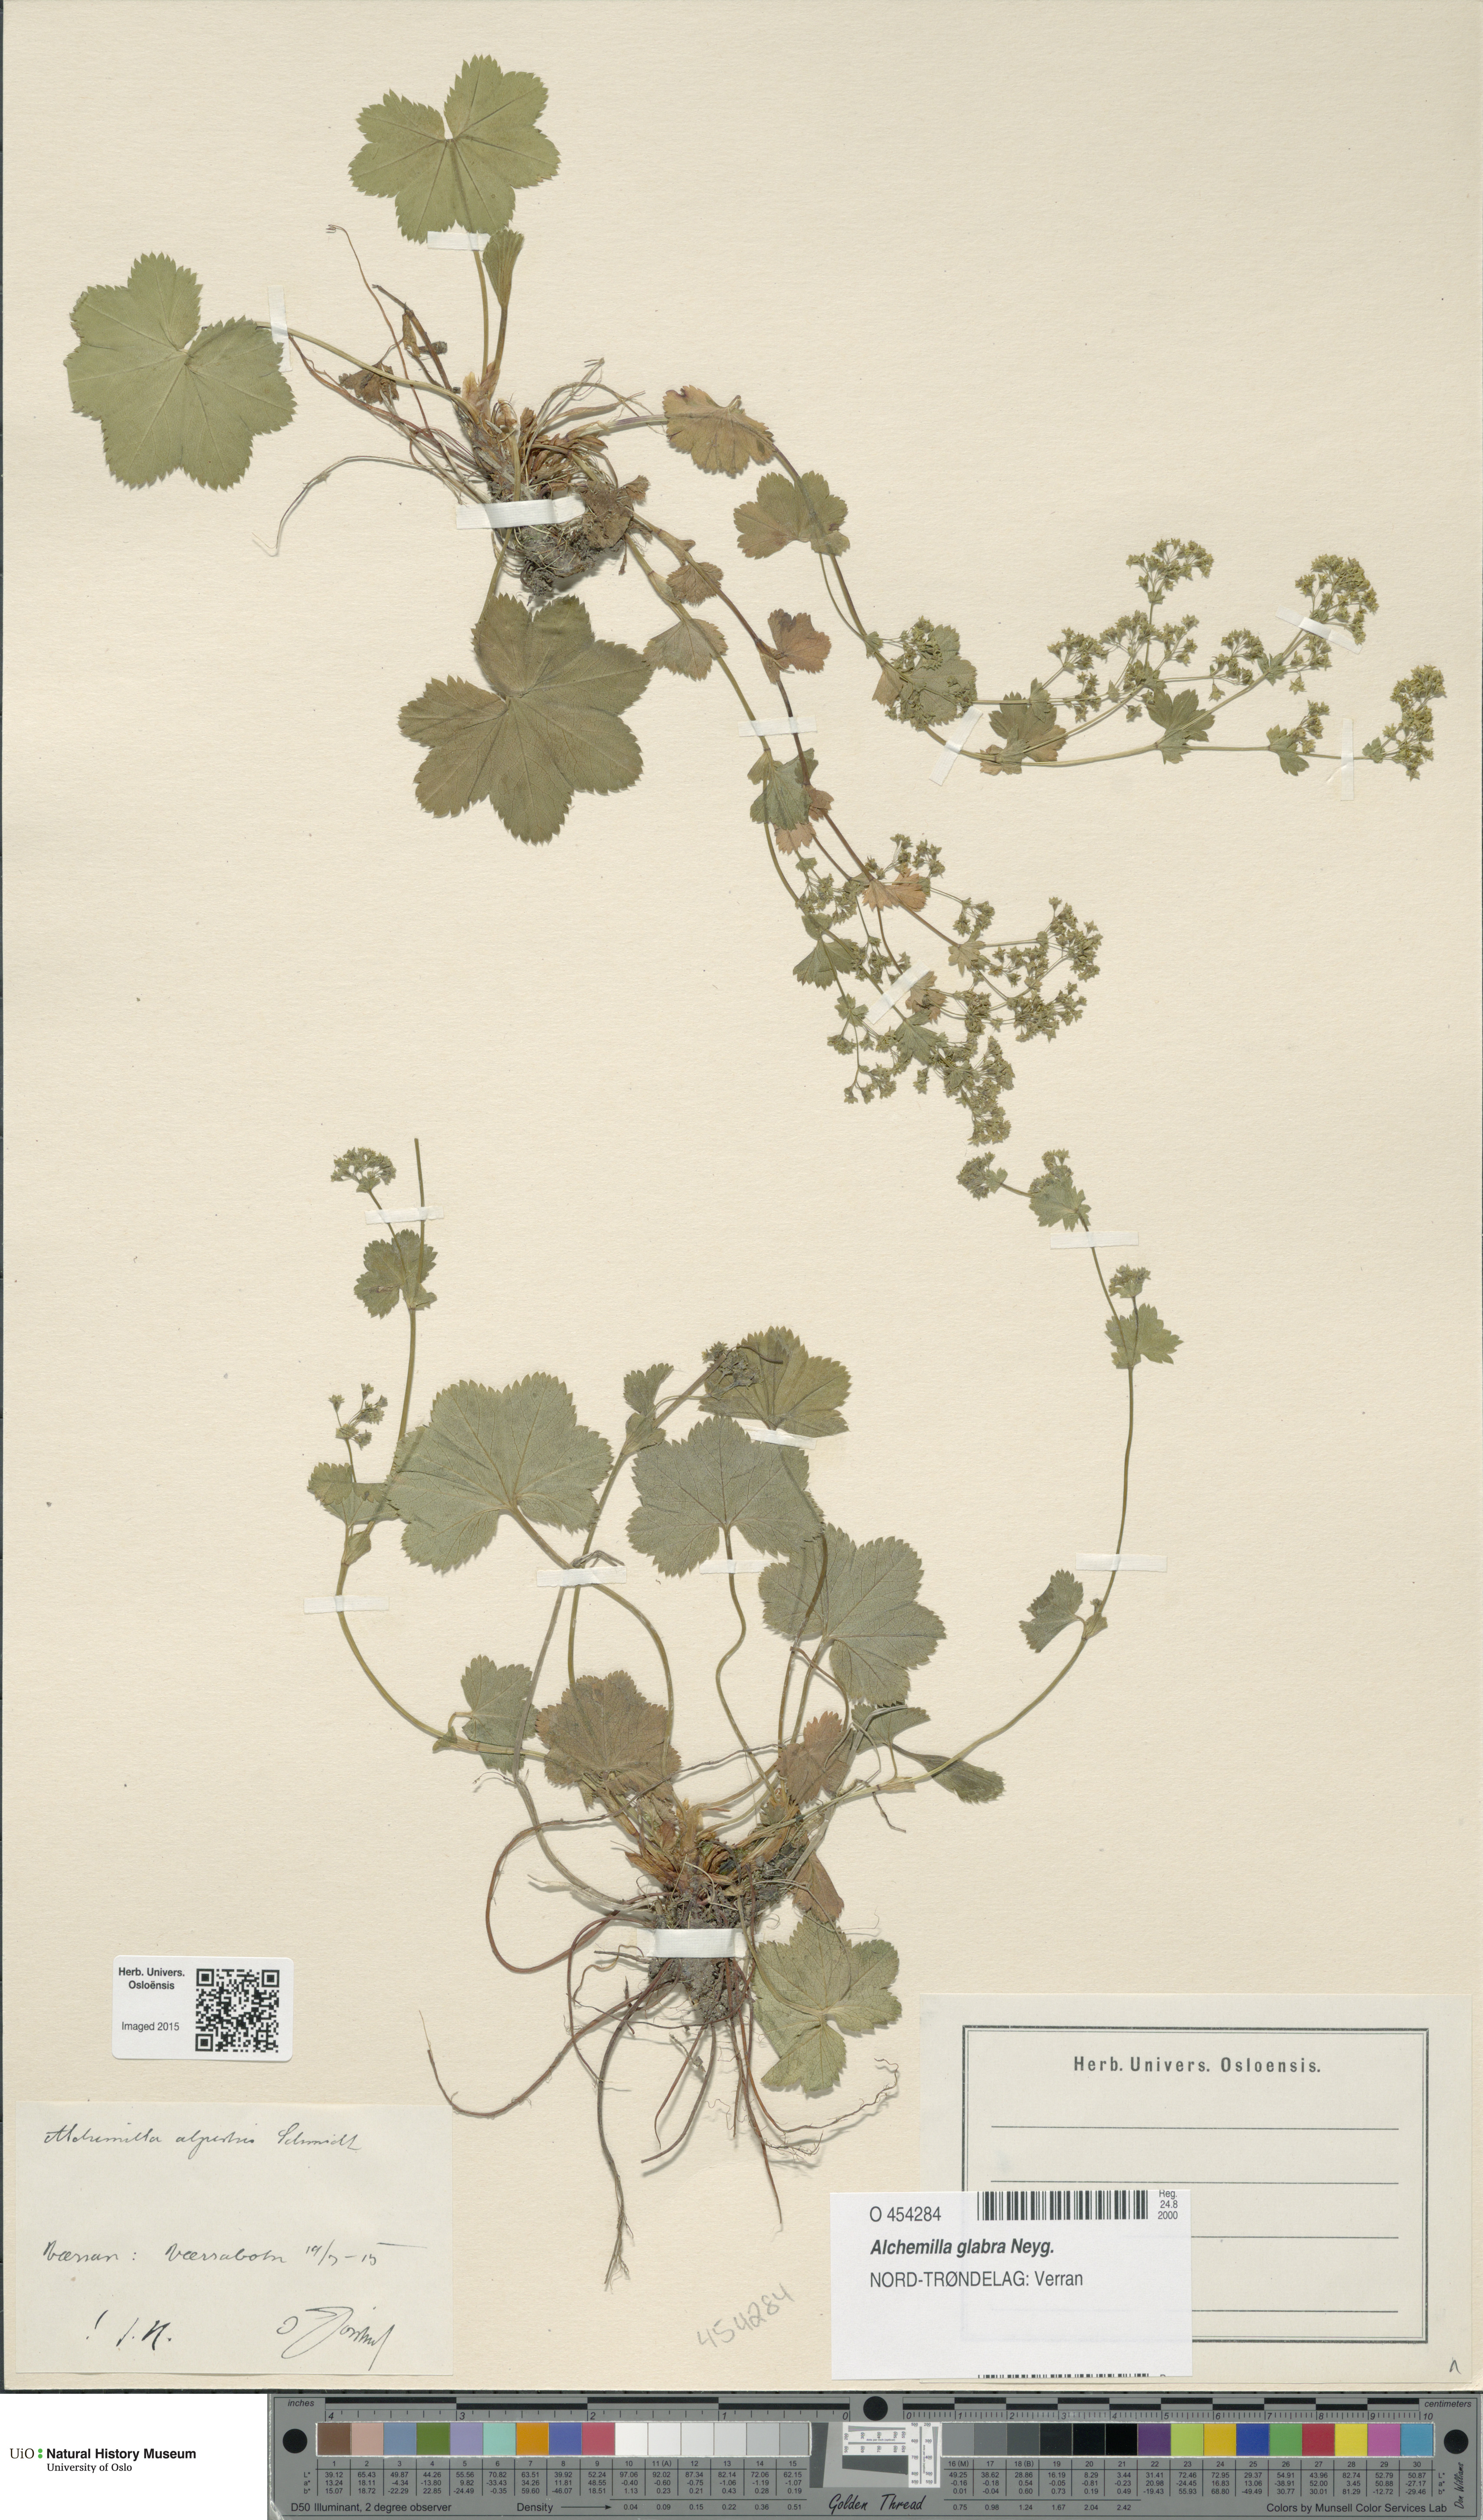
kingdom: Plantae
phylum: Tracheophyta
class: Magnoliopsida
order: Rosales
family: Rosaceae
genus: Alchemilla
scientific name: Alchemilla glabra
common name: Smooth lady's-mantle
